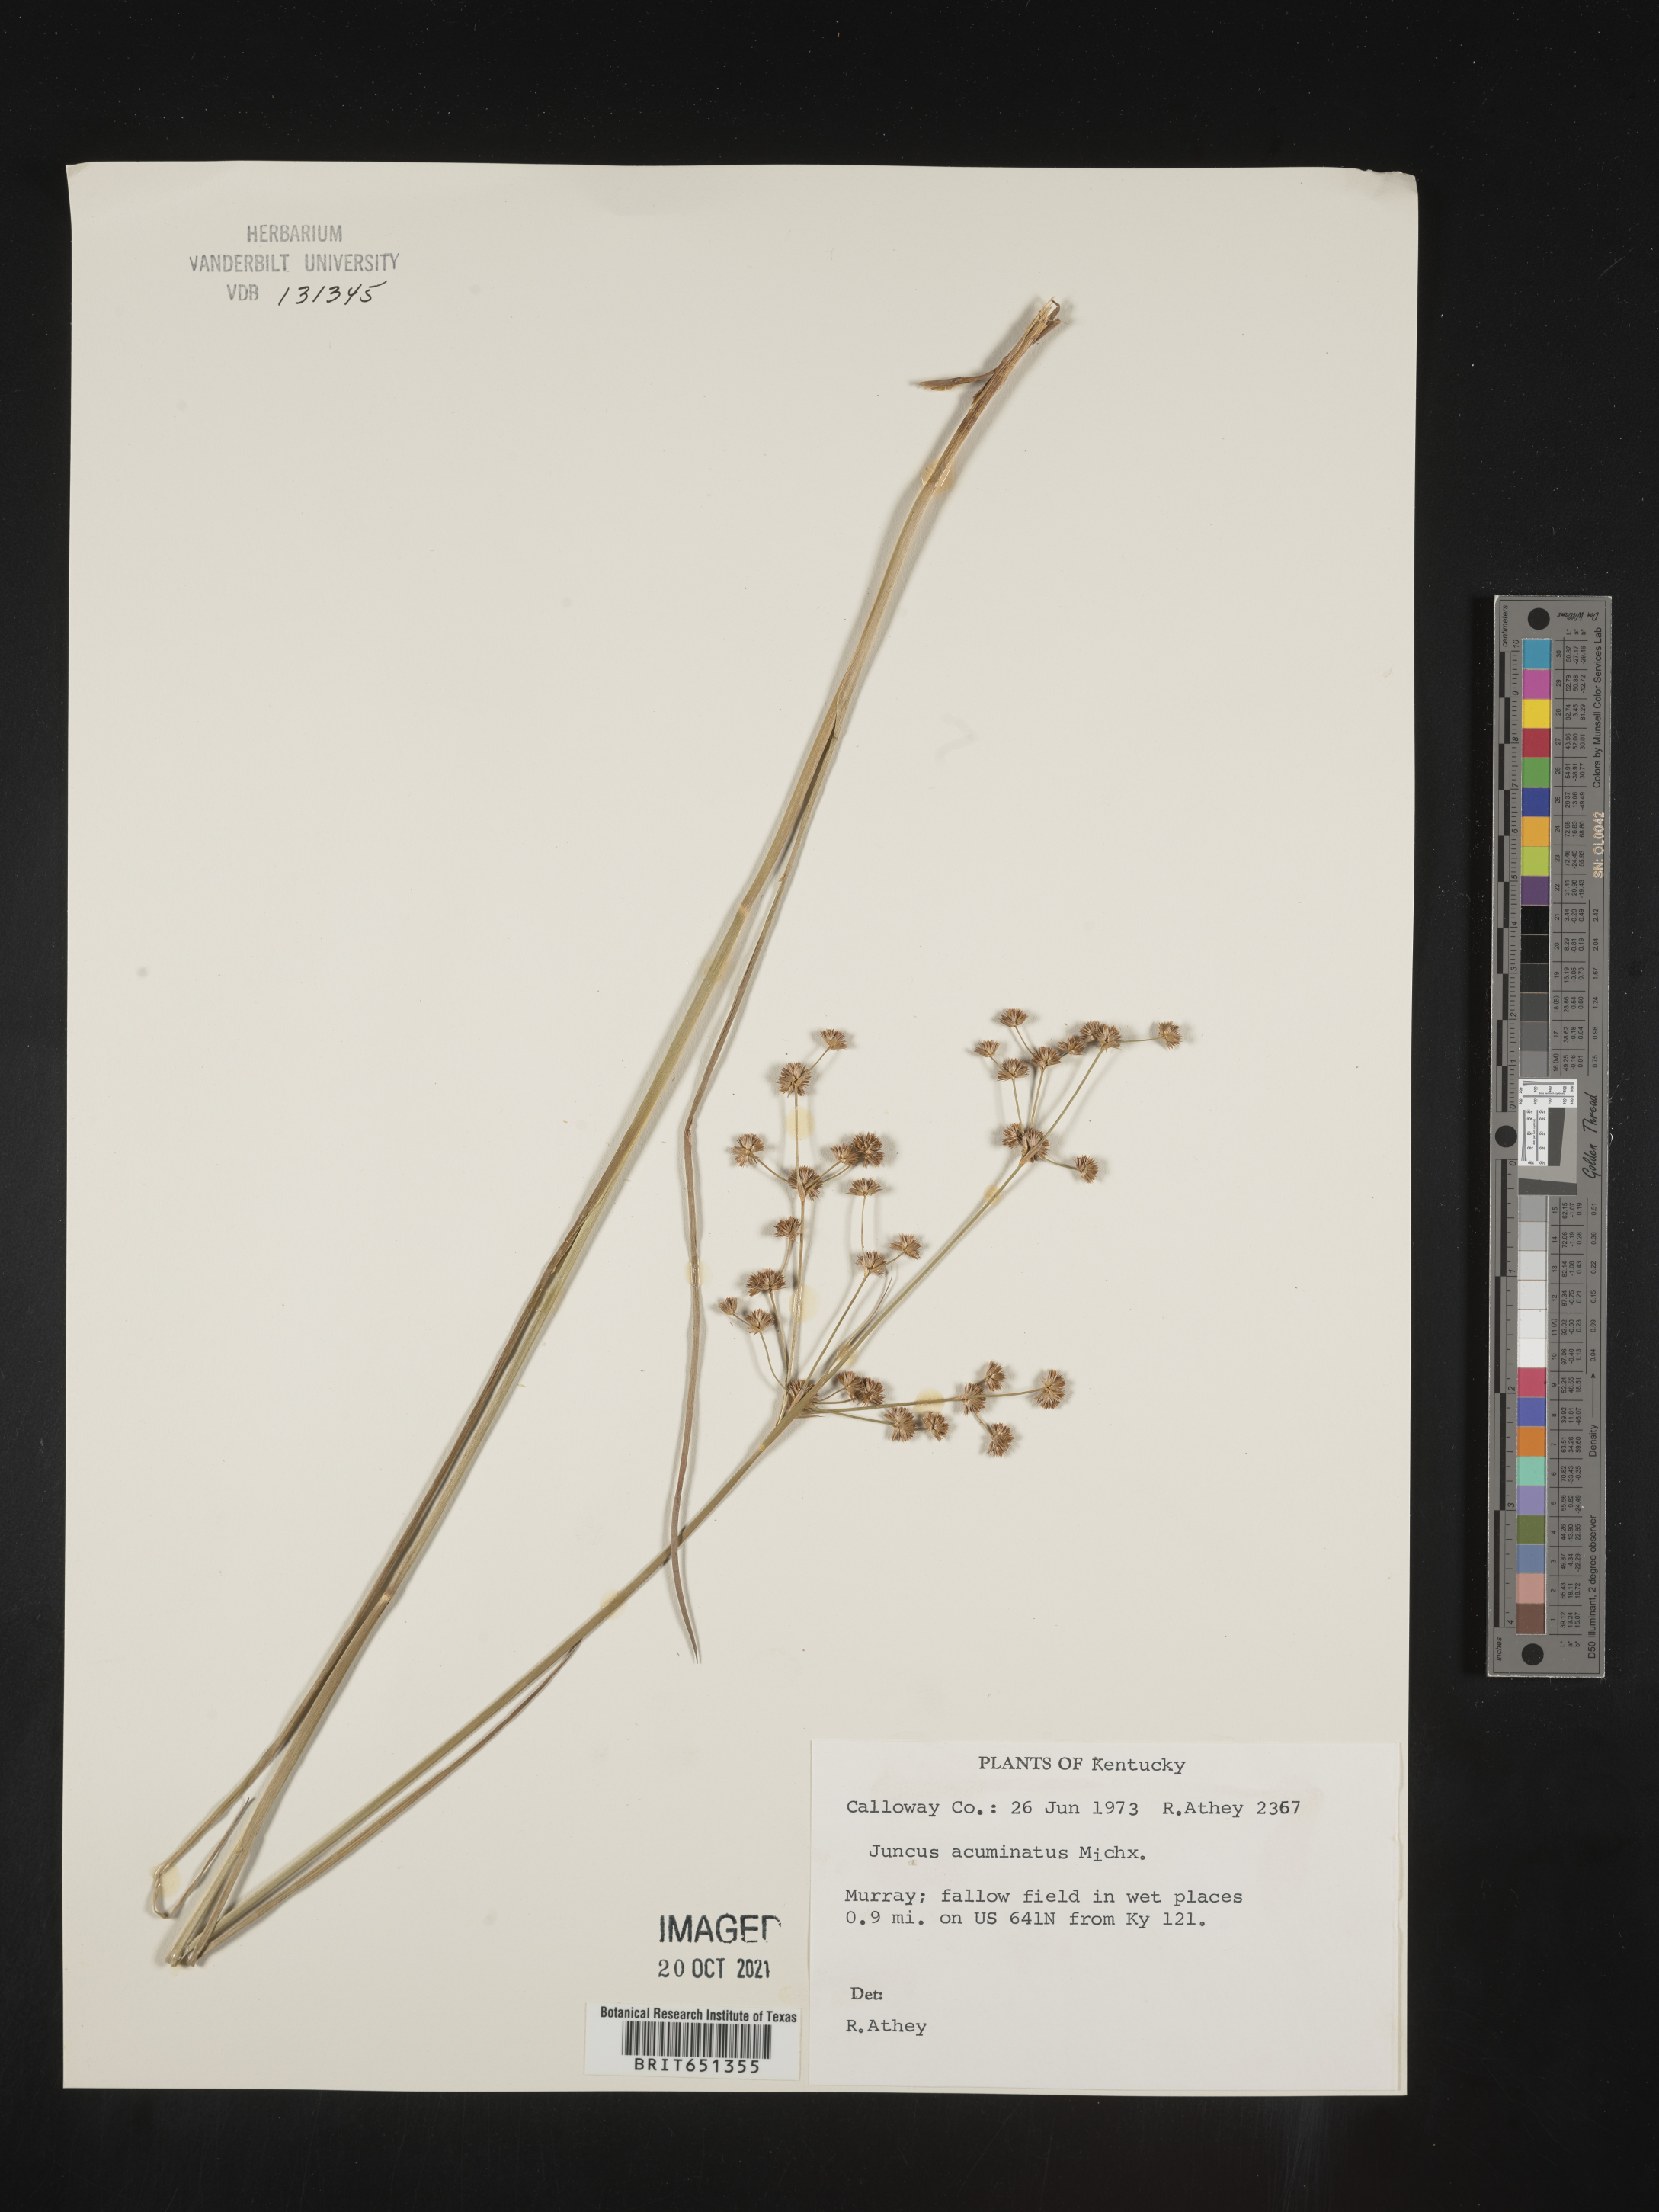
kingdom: Plantae
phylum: Tracheophyta
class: Liliopsida
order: Poales
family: Juncaceae
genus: Juncus
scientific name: Juncus acuminatus
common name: Knotty-leaved rush
